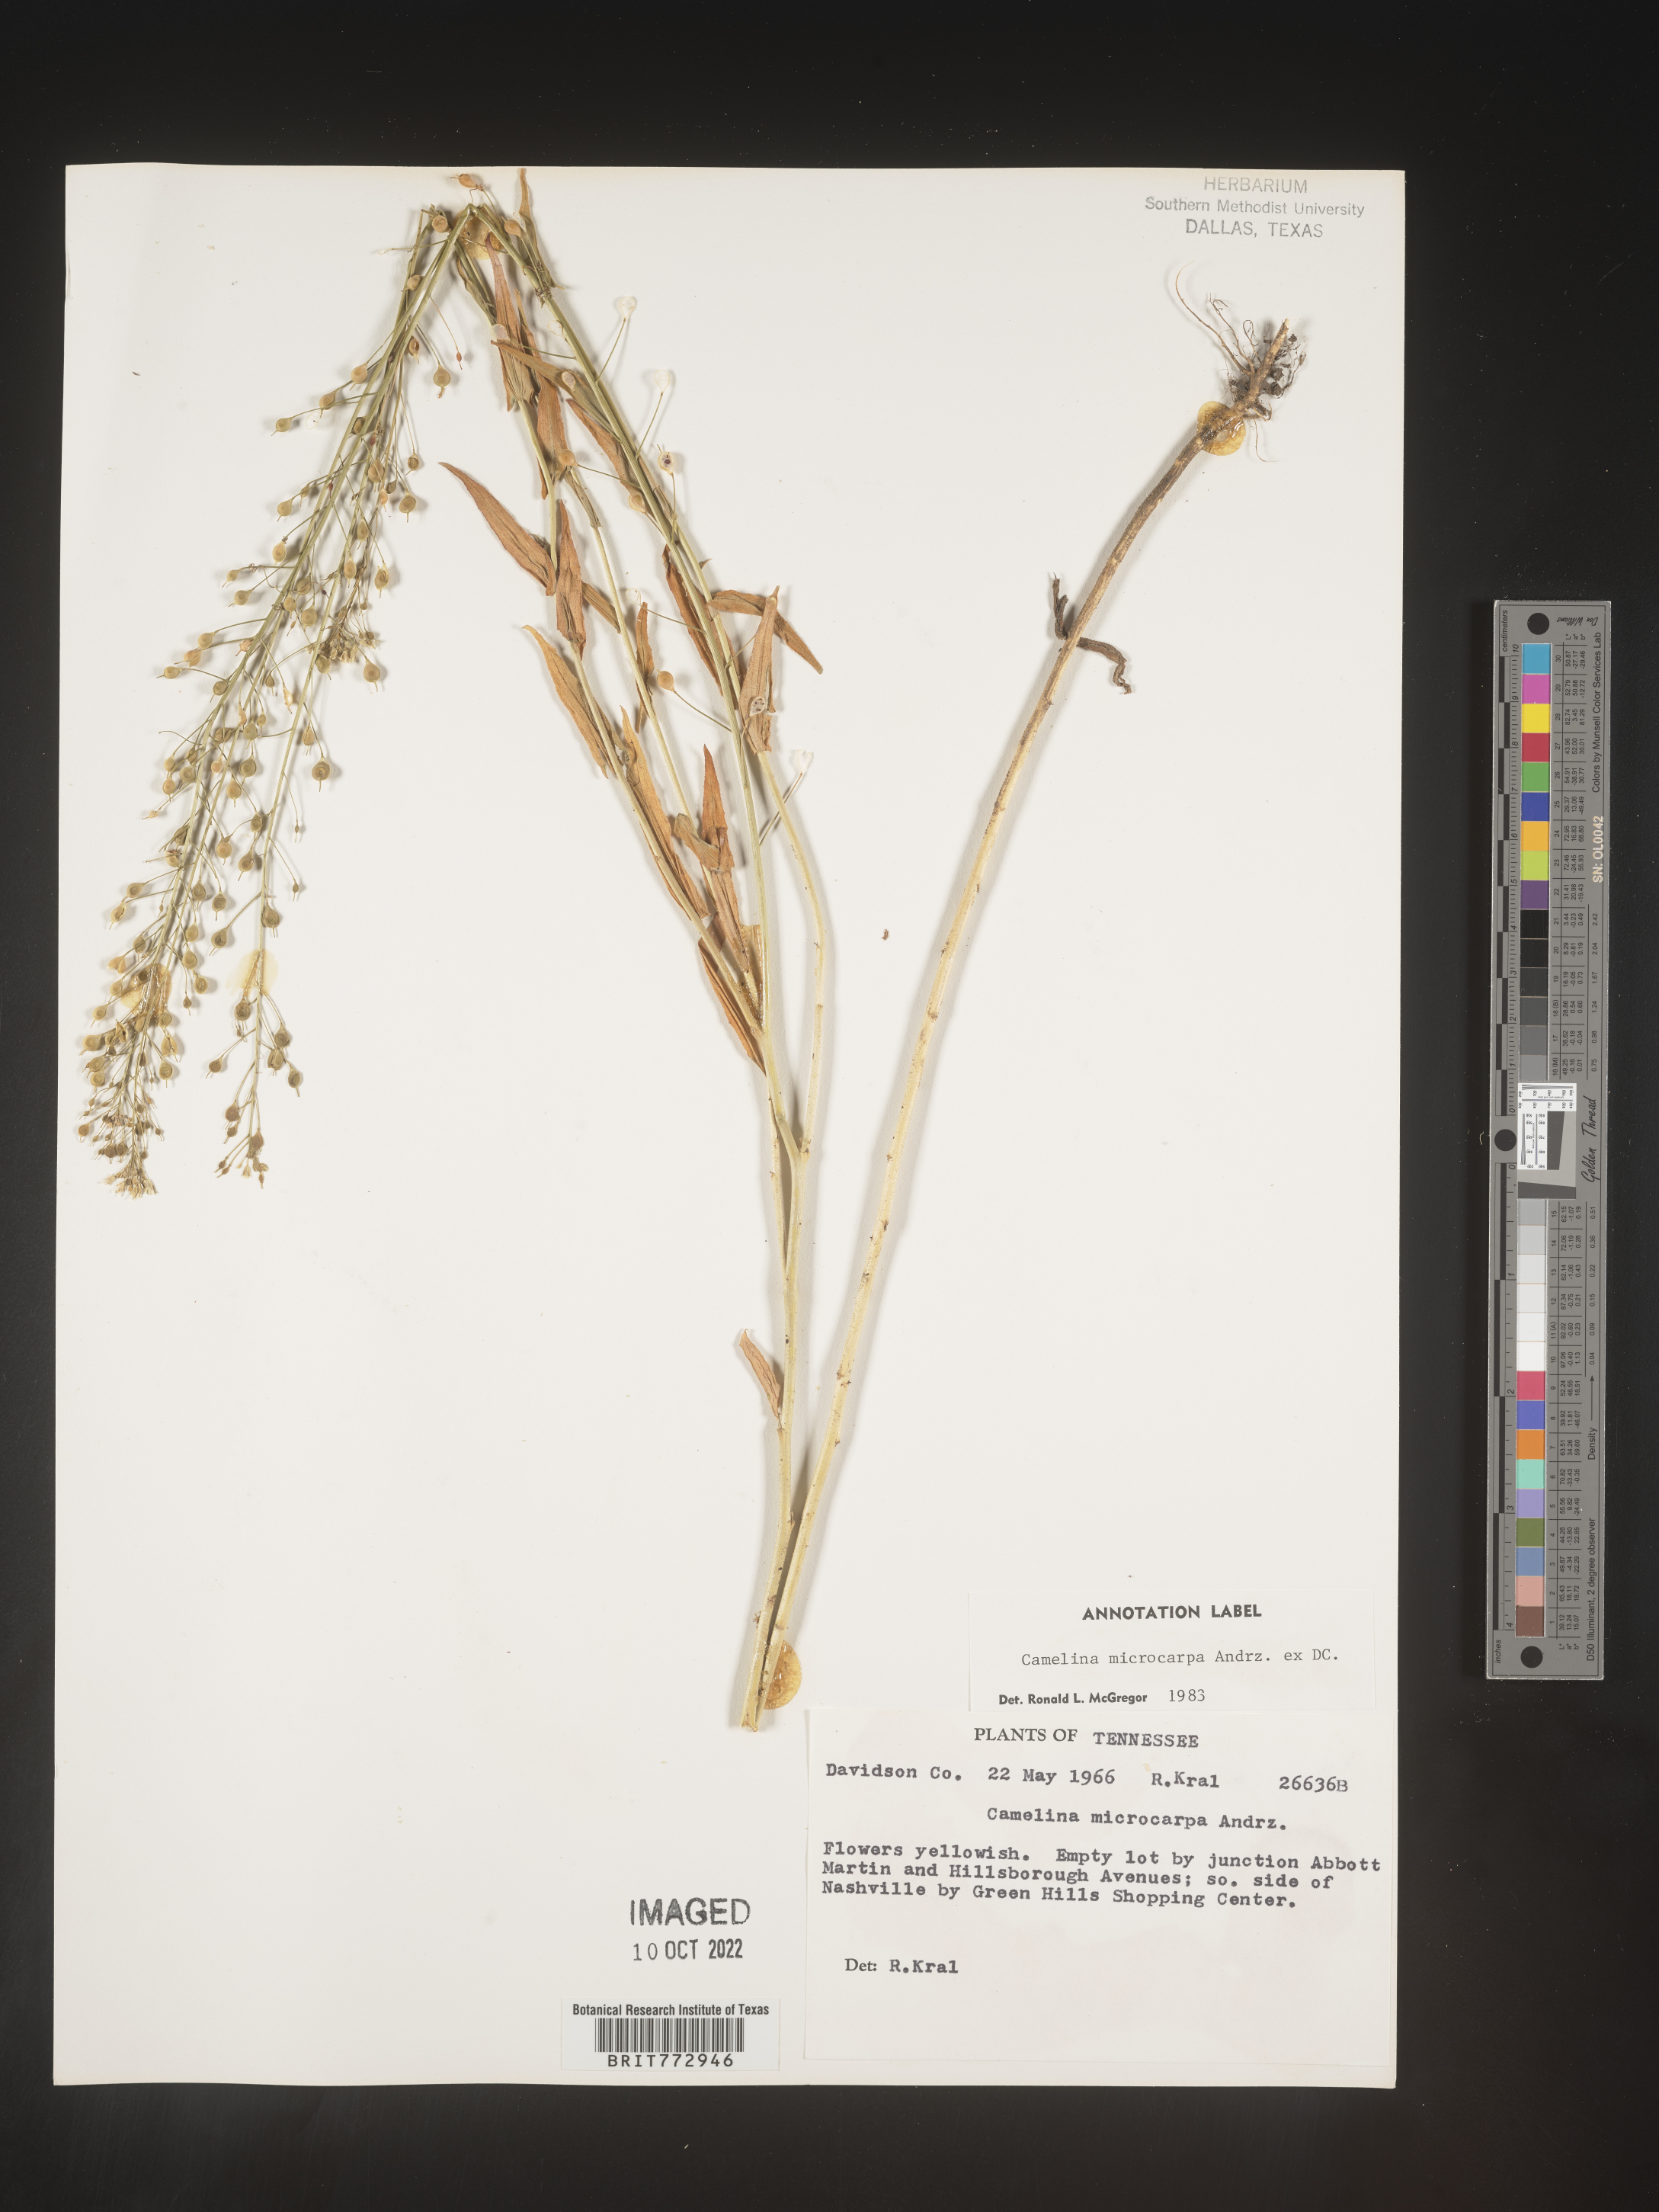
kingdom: Plantae
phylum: Tracheophyta
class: Magnoliopsida
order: Brassicales
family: Brassicaceae
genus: Camelina
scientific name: Camelina microcarpa
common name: Lesser gold-of-pleasure
